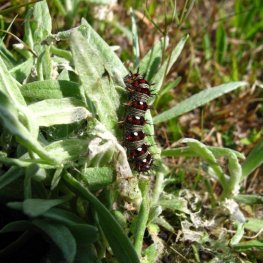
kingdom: Animalia
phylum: Arthropoda
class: Insecta
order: Lepidoptera
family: Nymphalidae
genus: Vanessa
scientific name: Vanessa virginiensis
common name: American Lady
